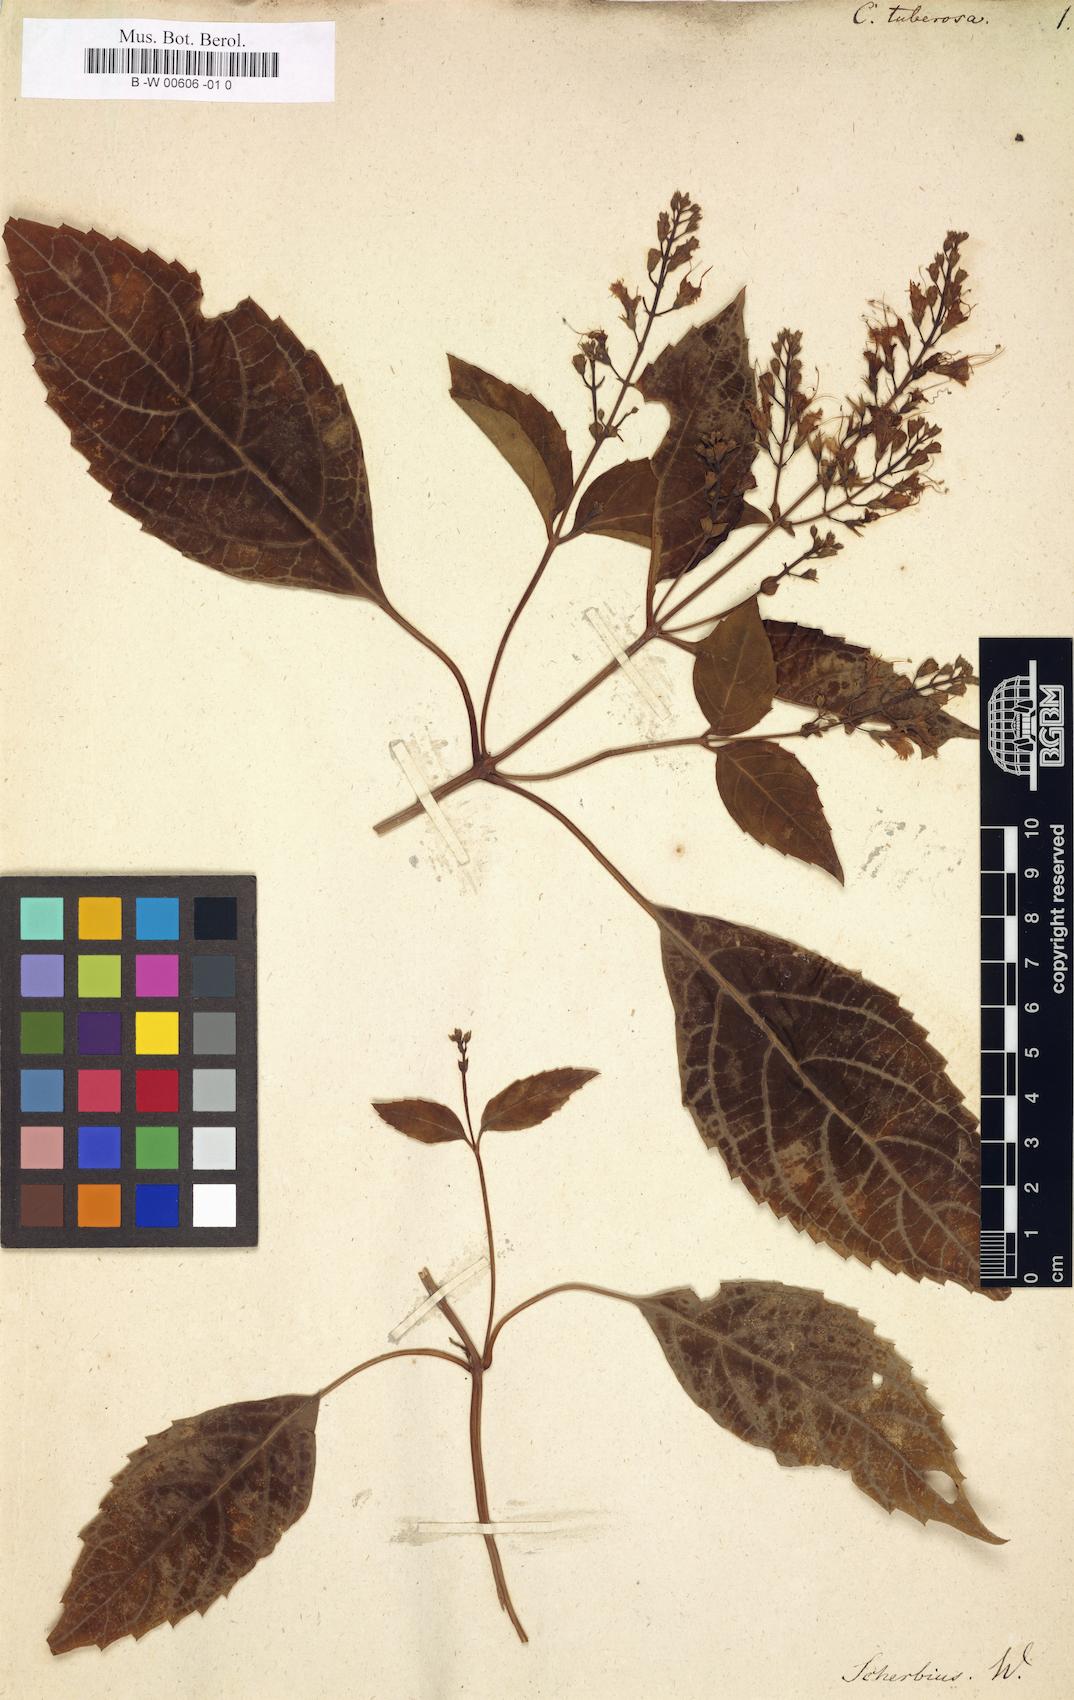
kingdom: Plantae
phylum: Tracheophyta
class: Magnoliopsida
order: Lamiales
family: Lamiaceae
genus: Collinsonia
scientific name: Collinsonia canadensis
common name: Northern horsebalm
